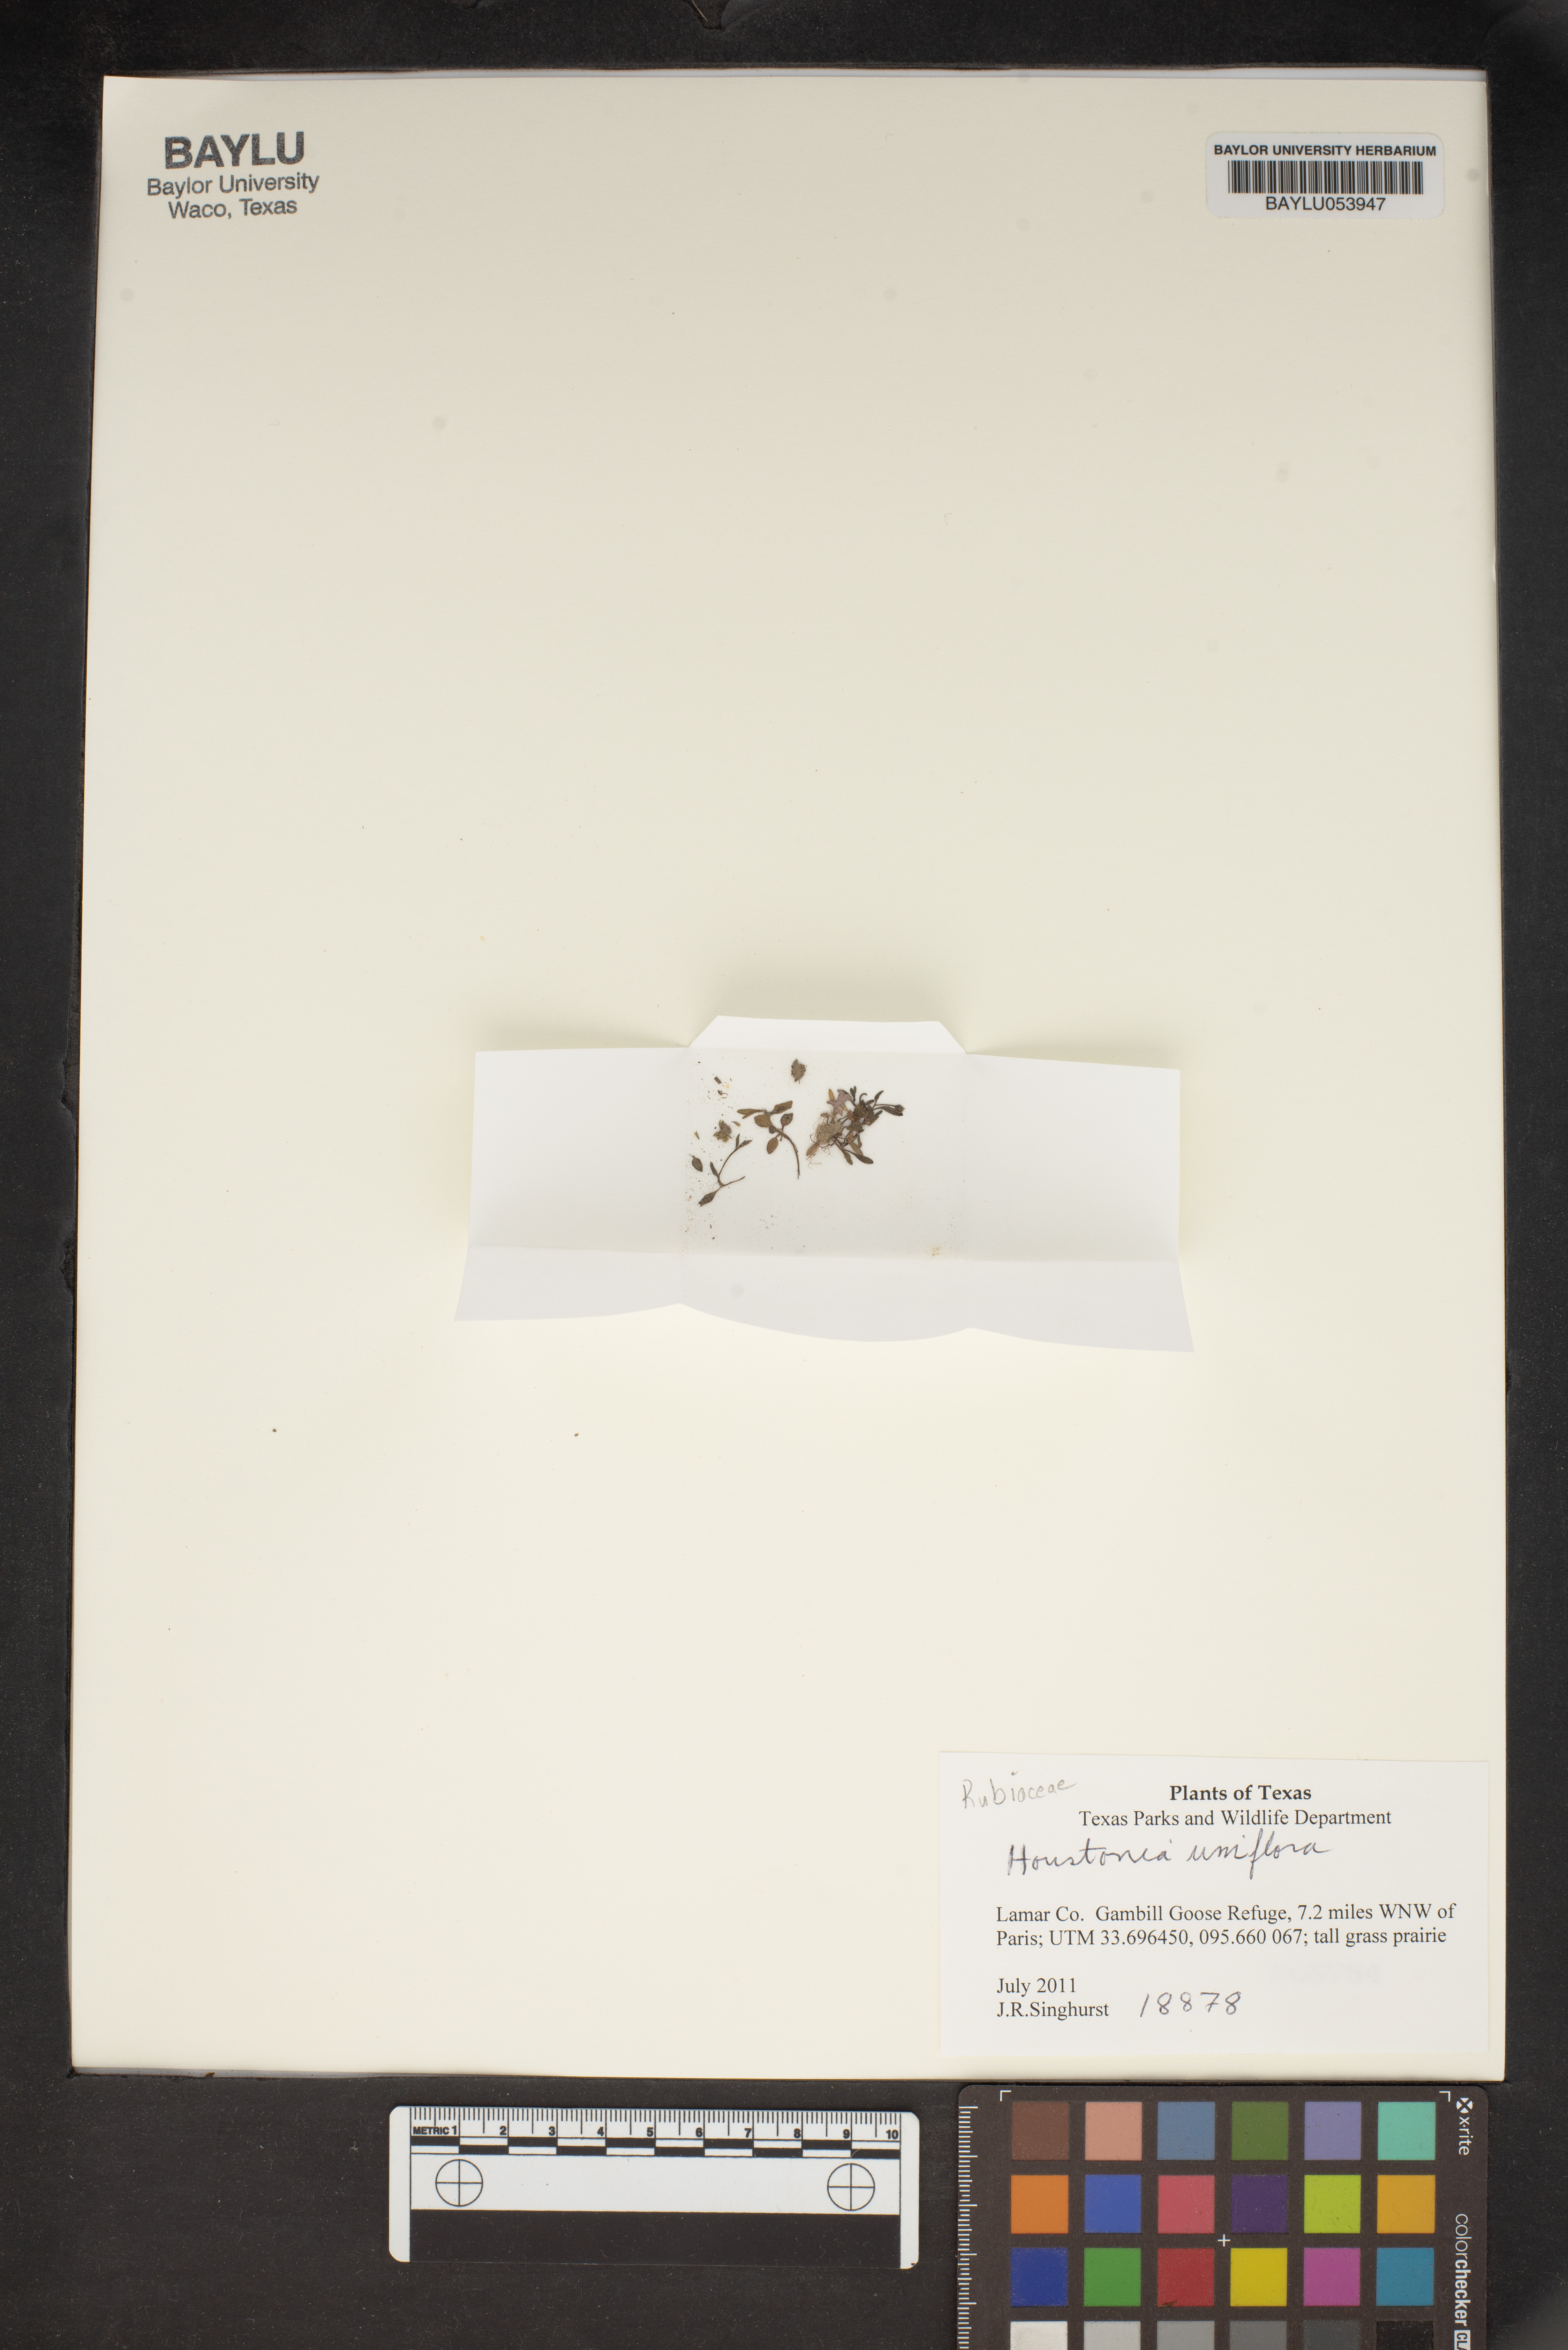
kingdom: Plantae
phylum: Tracheophyta
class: Magnoliopsida
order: Gentianales
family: Rubiaceae
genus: Houstonia
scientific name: Houstonia
